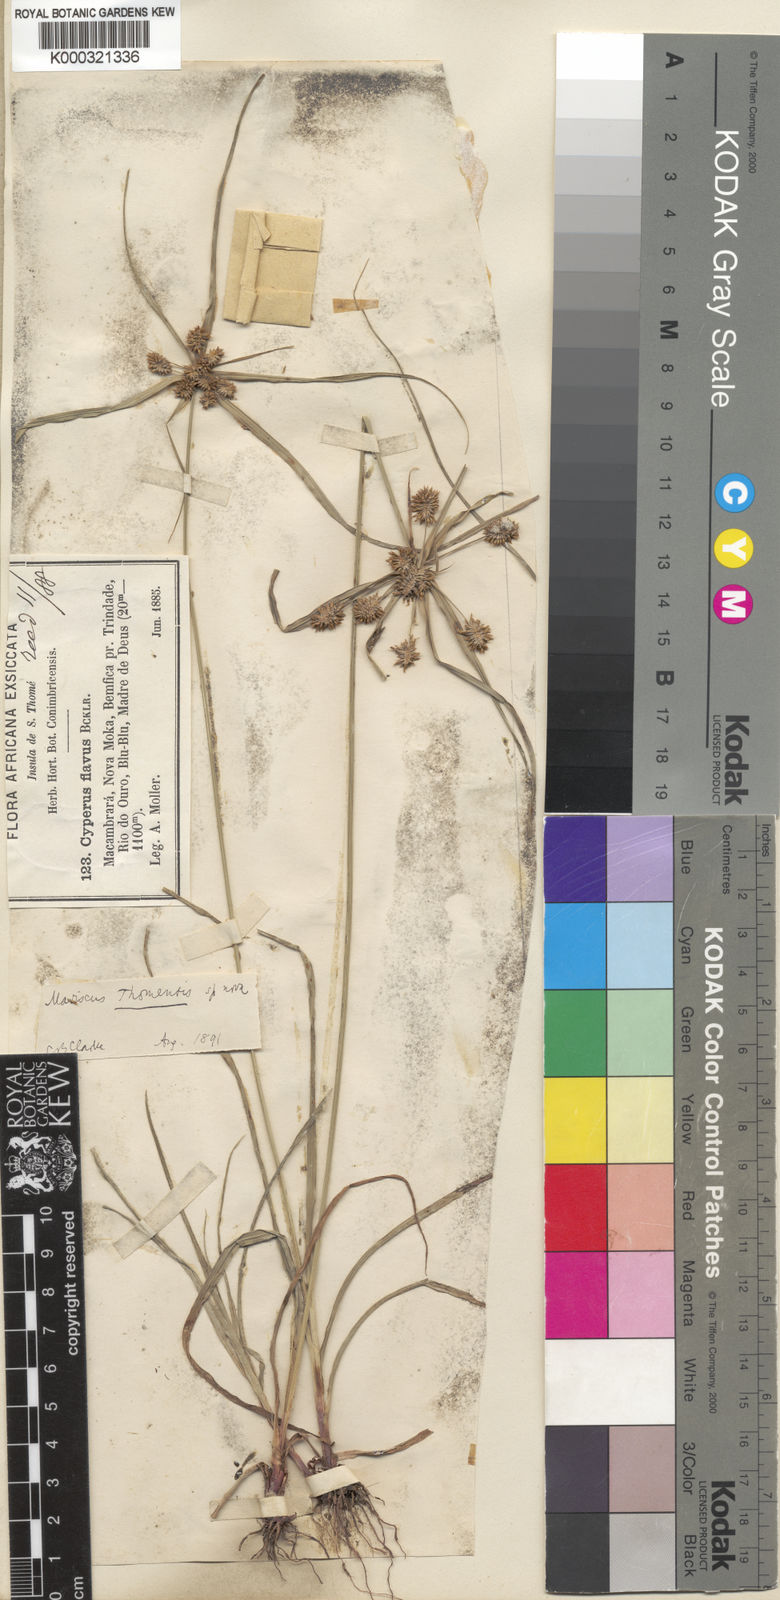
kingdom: Plantae
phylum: Tracheophyta
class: Liliopsida
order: Poales
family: Cyperaceae
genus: Cyperus
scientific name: Cyperus
